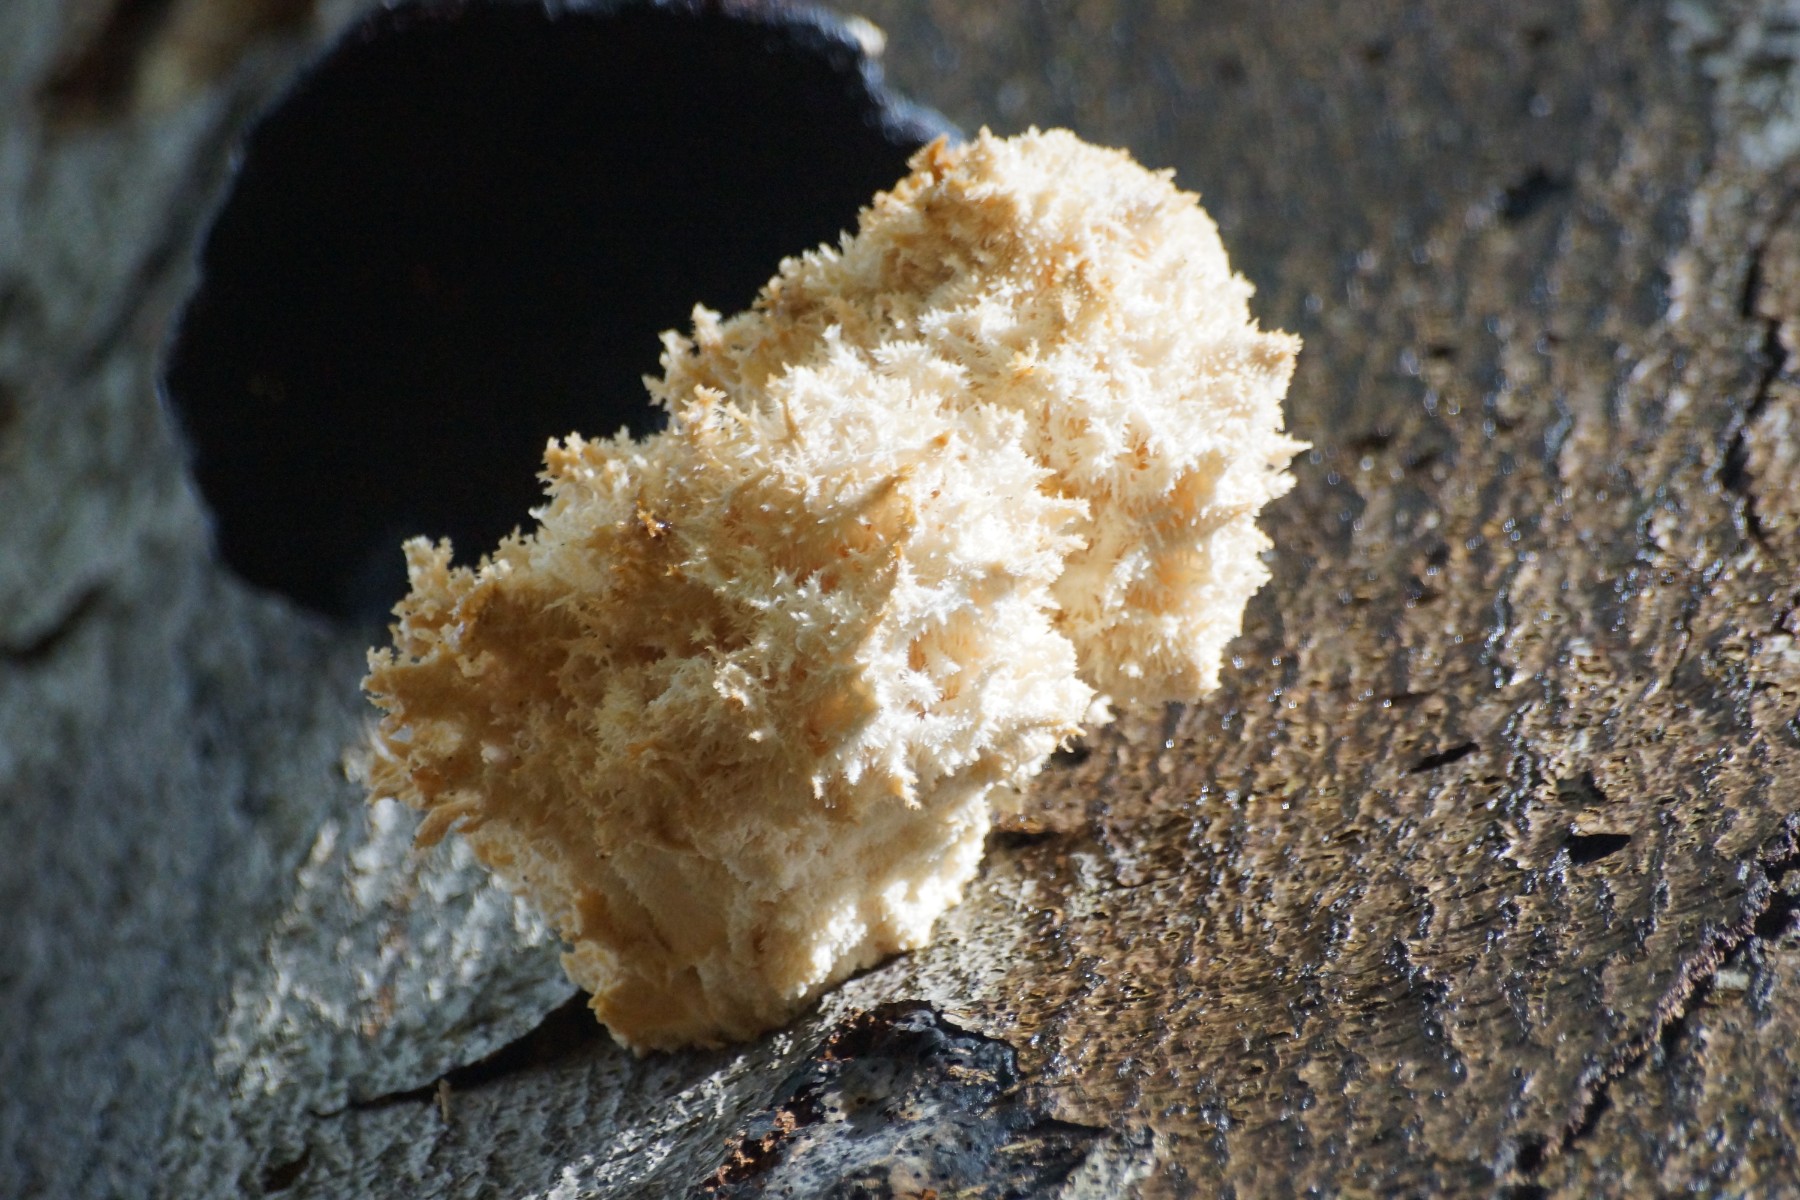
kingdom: Fungi
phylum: Basidiomycota
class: Agaricomycetes
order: Russulales
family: Hericiaceae
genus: Hericium
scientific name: Hericium coralloides
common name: koralpigsvamp
